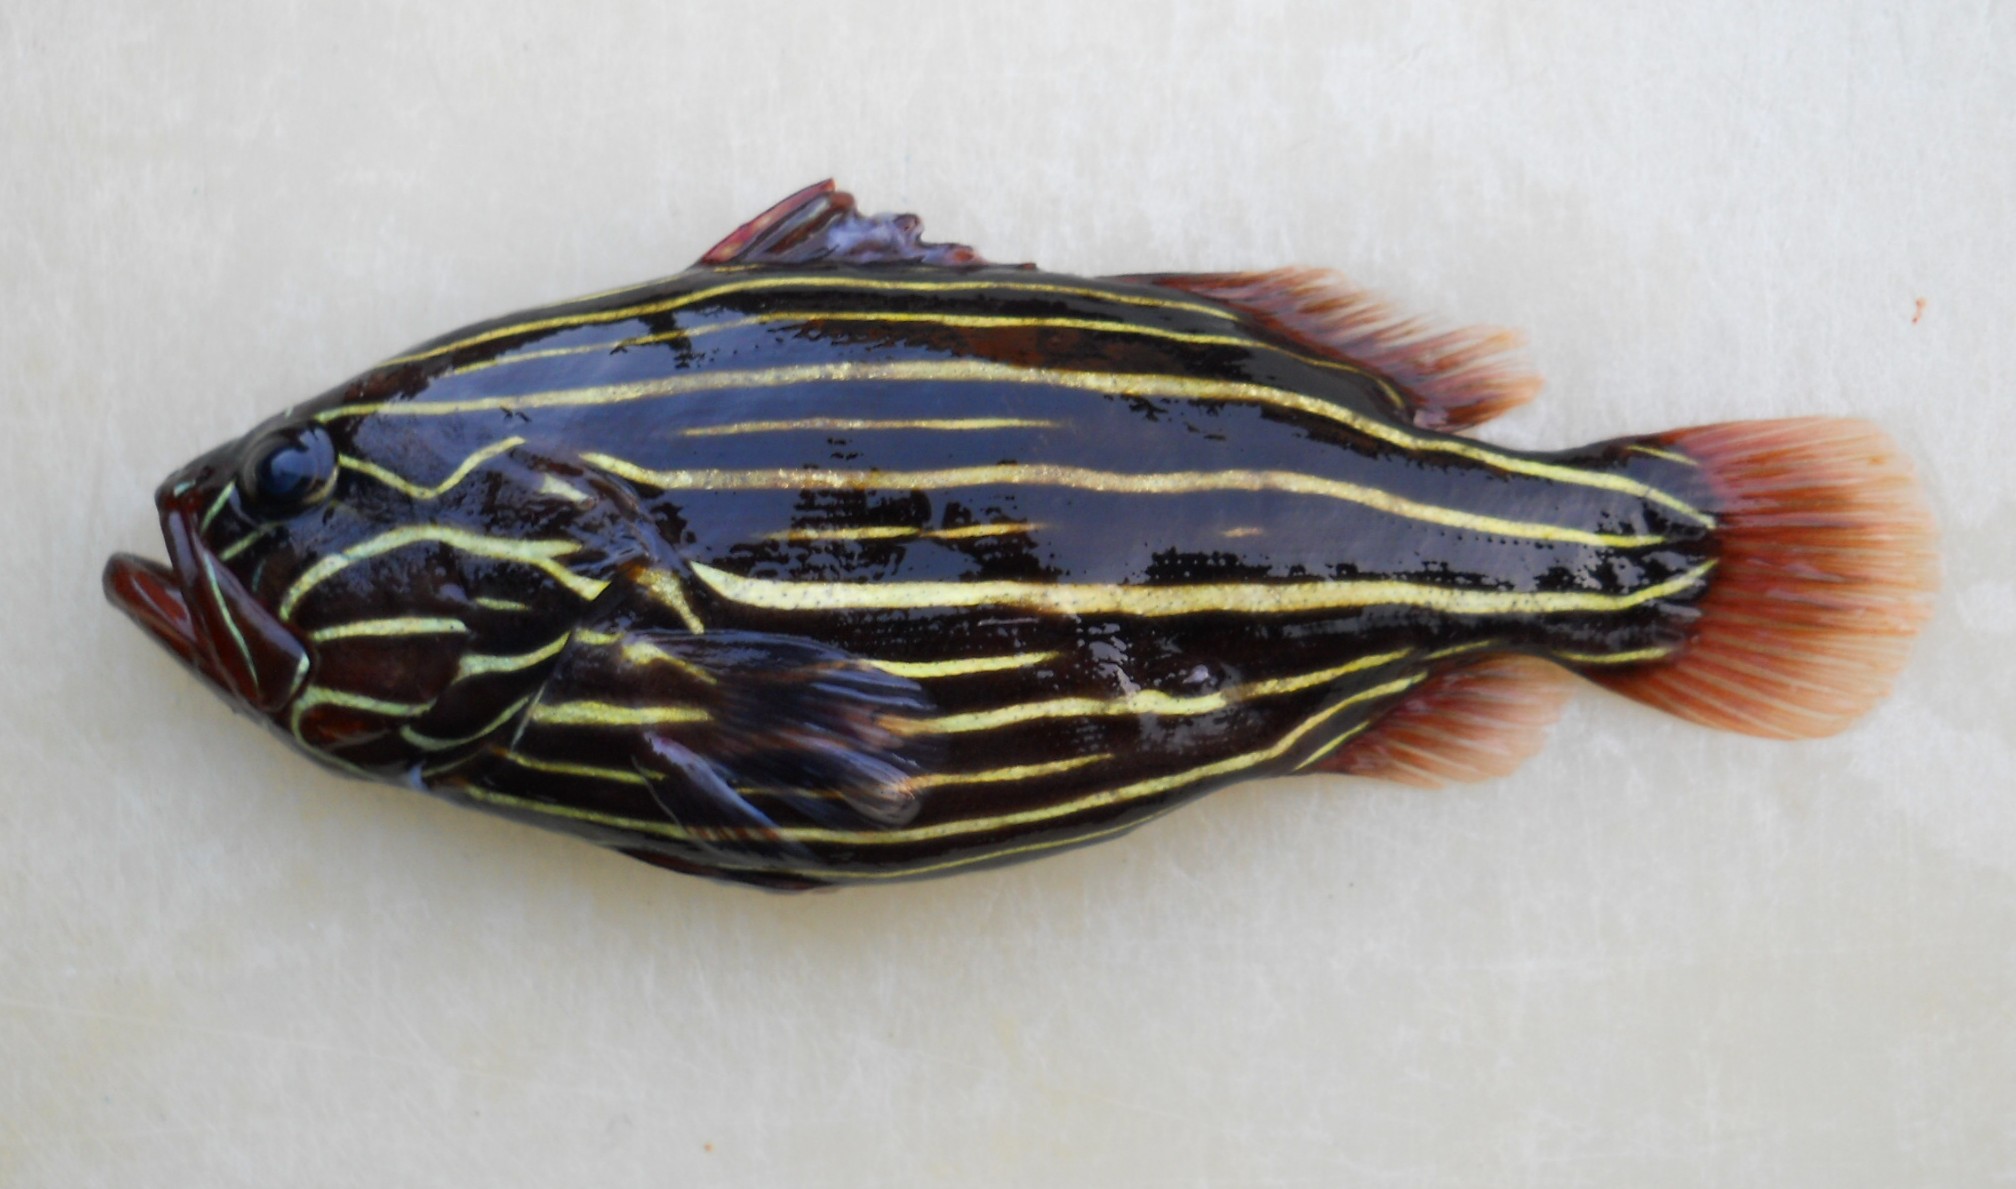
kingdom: Animalia
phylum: Chordata
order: Perciformes
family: Serranidae
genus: Grammistes
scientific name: Grammistes sexlineatus
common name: Sixline soapfish
